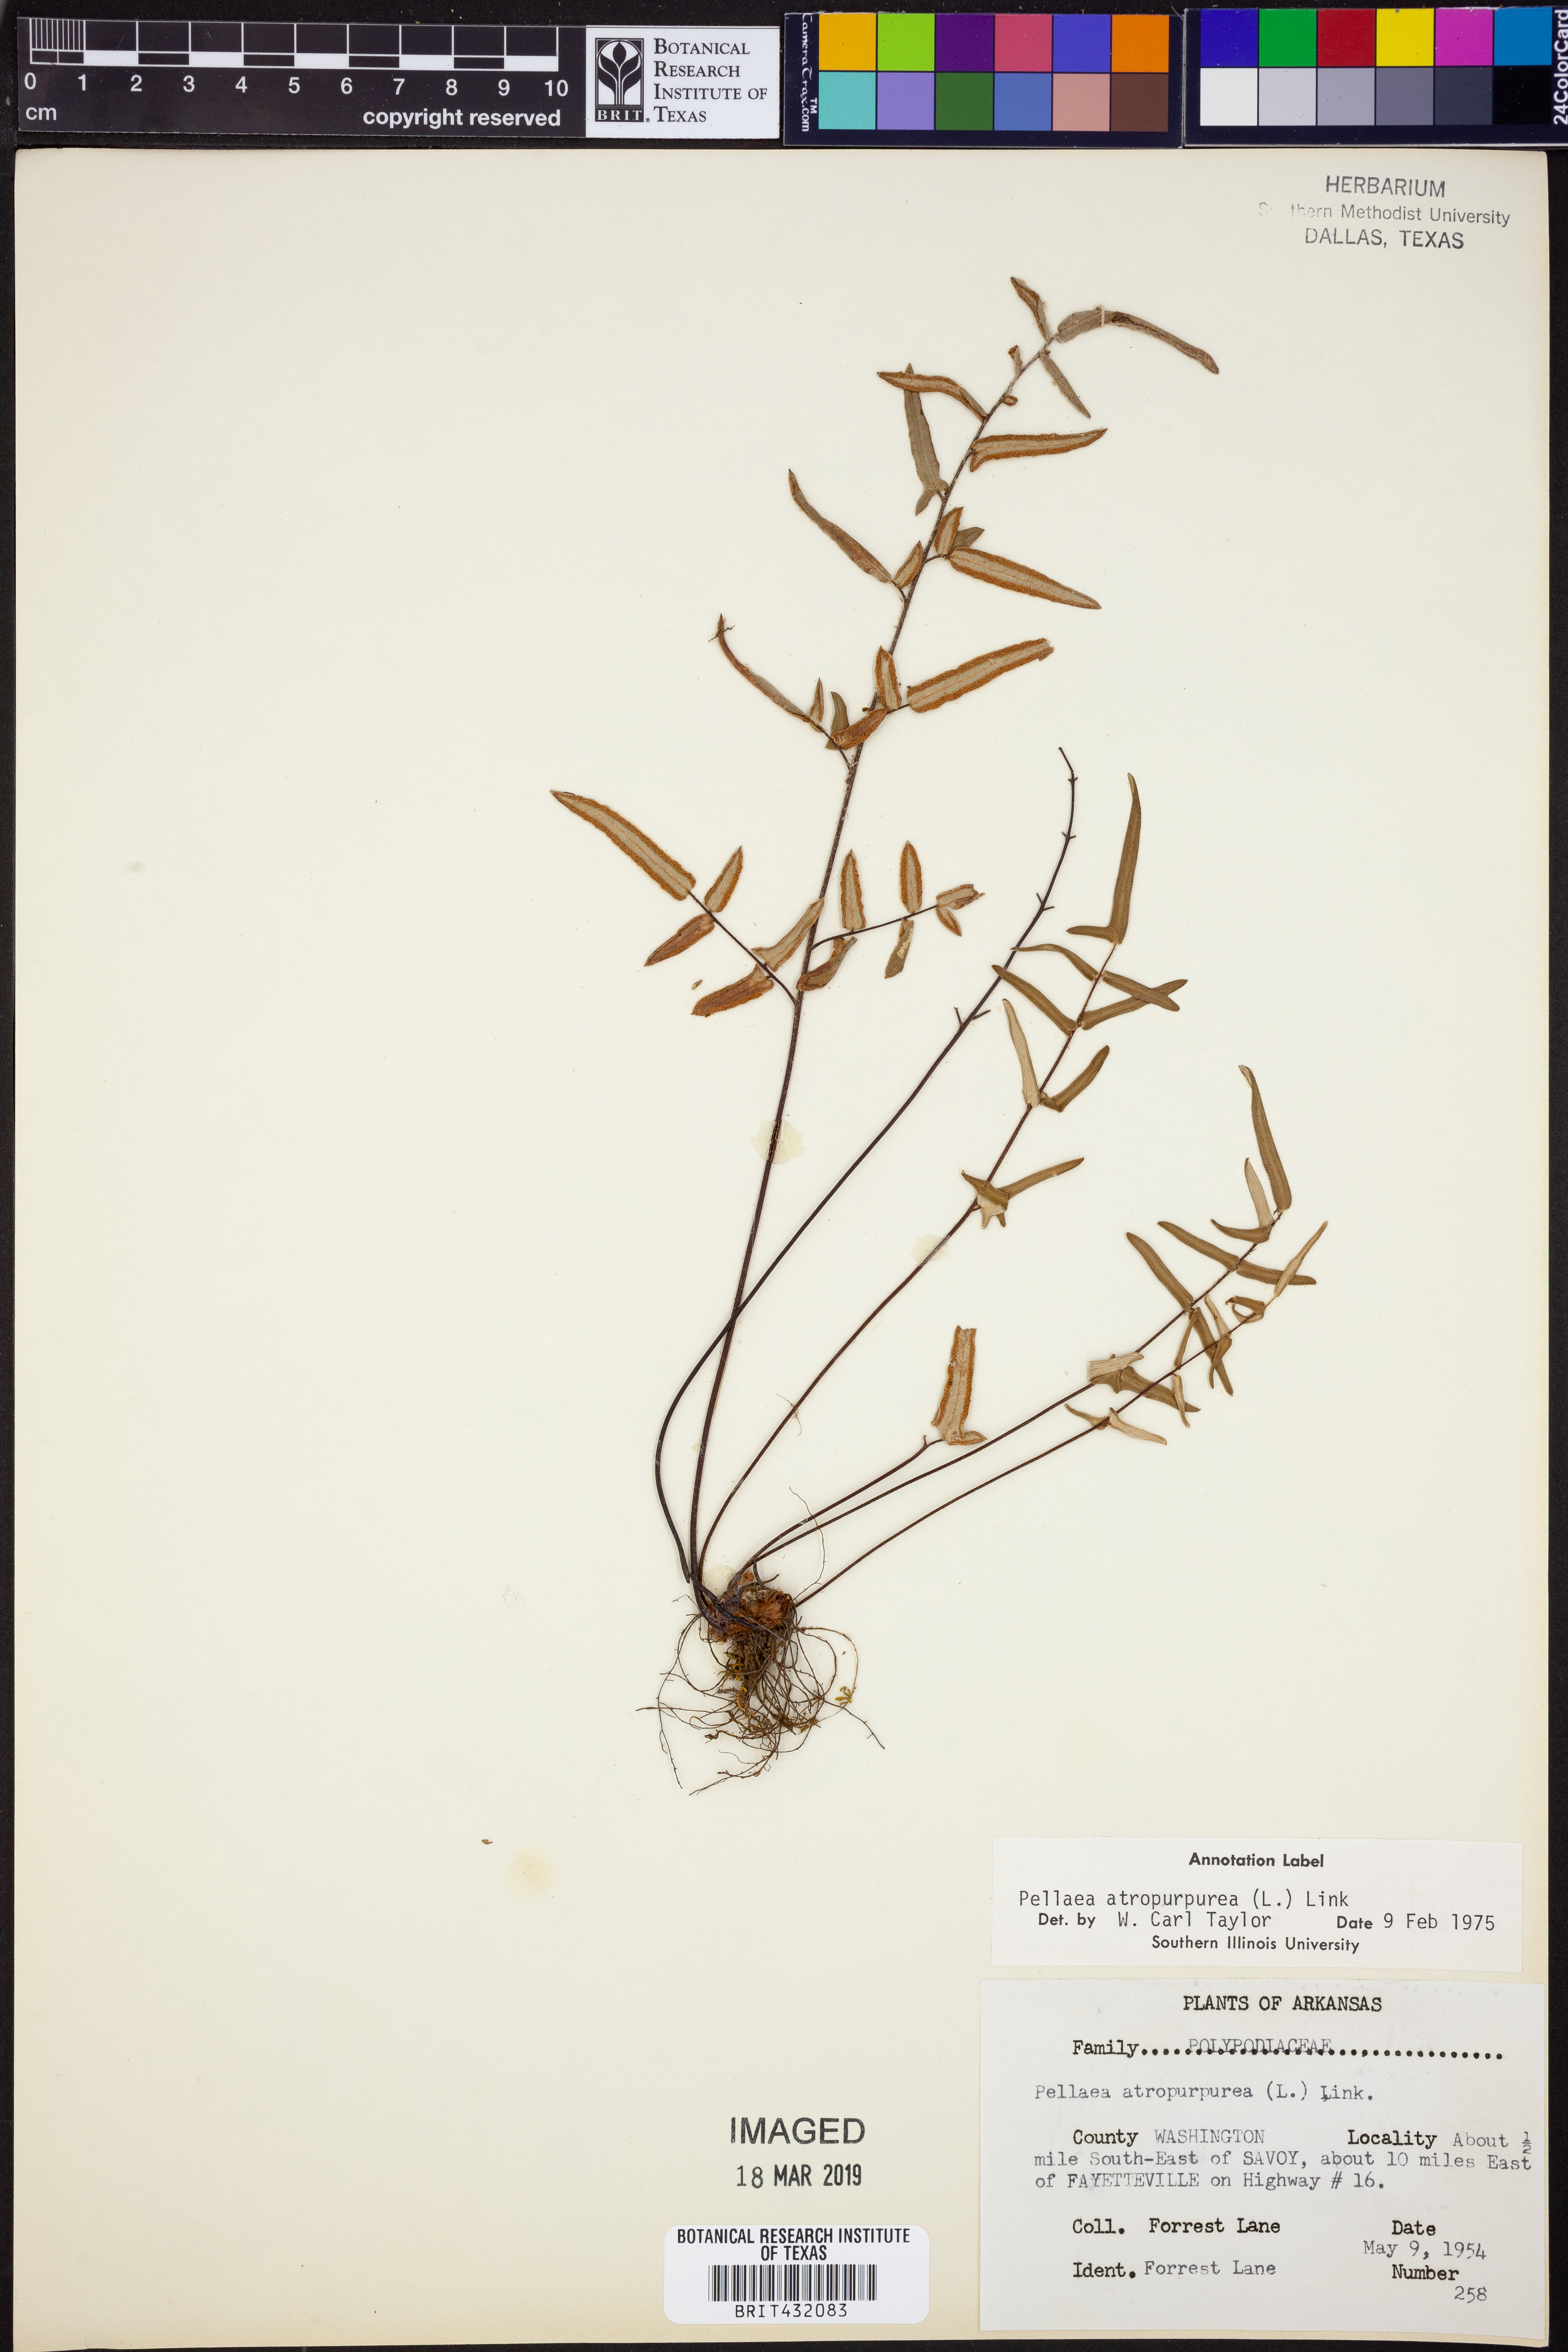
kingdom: Plantae
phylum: Tracheophyta
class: Polypodiopsida
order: Polypodiales
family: Pteridaceae
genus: Pellaea
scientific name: Pellaea atropurpurea
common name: Hairy cliffbrake
